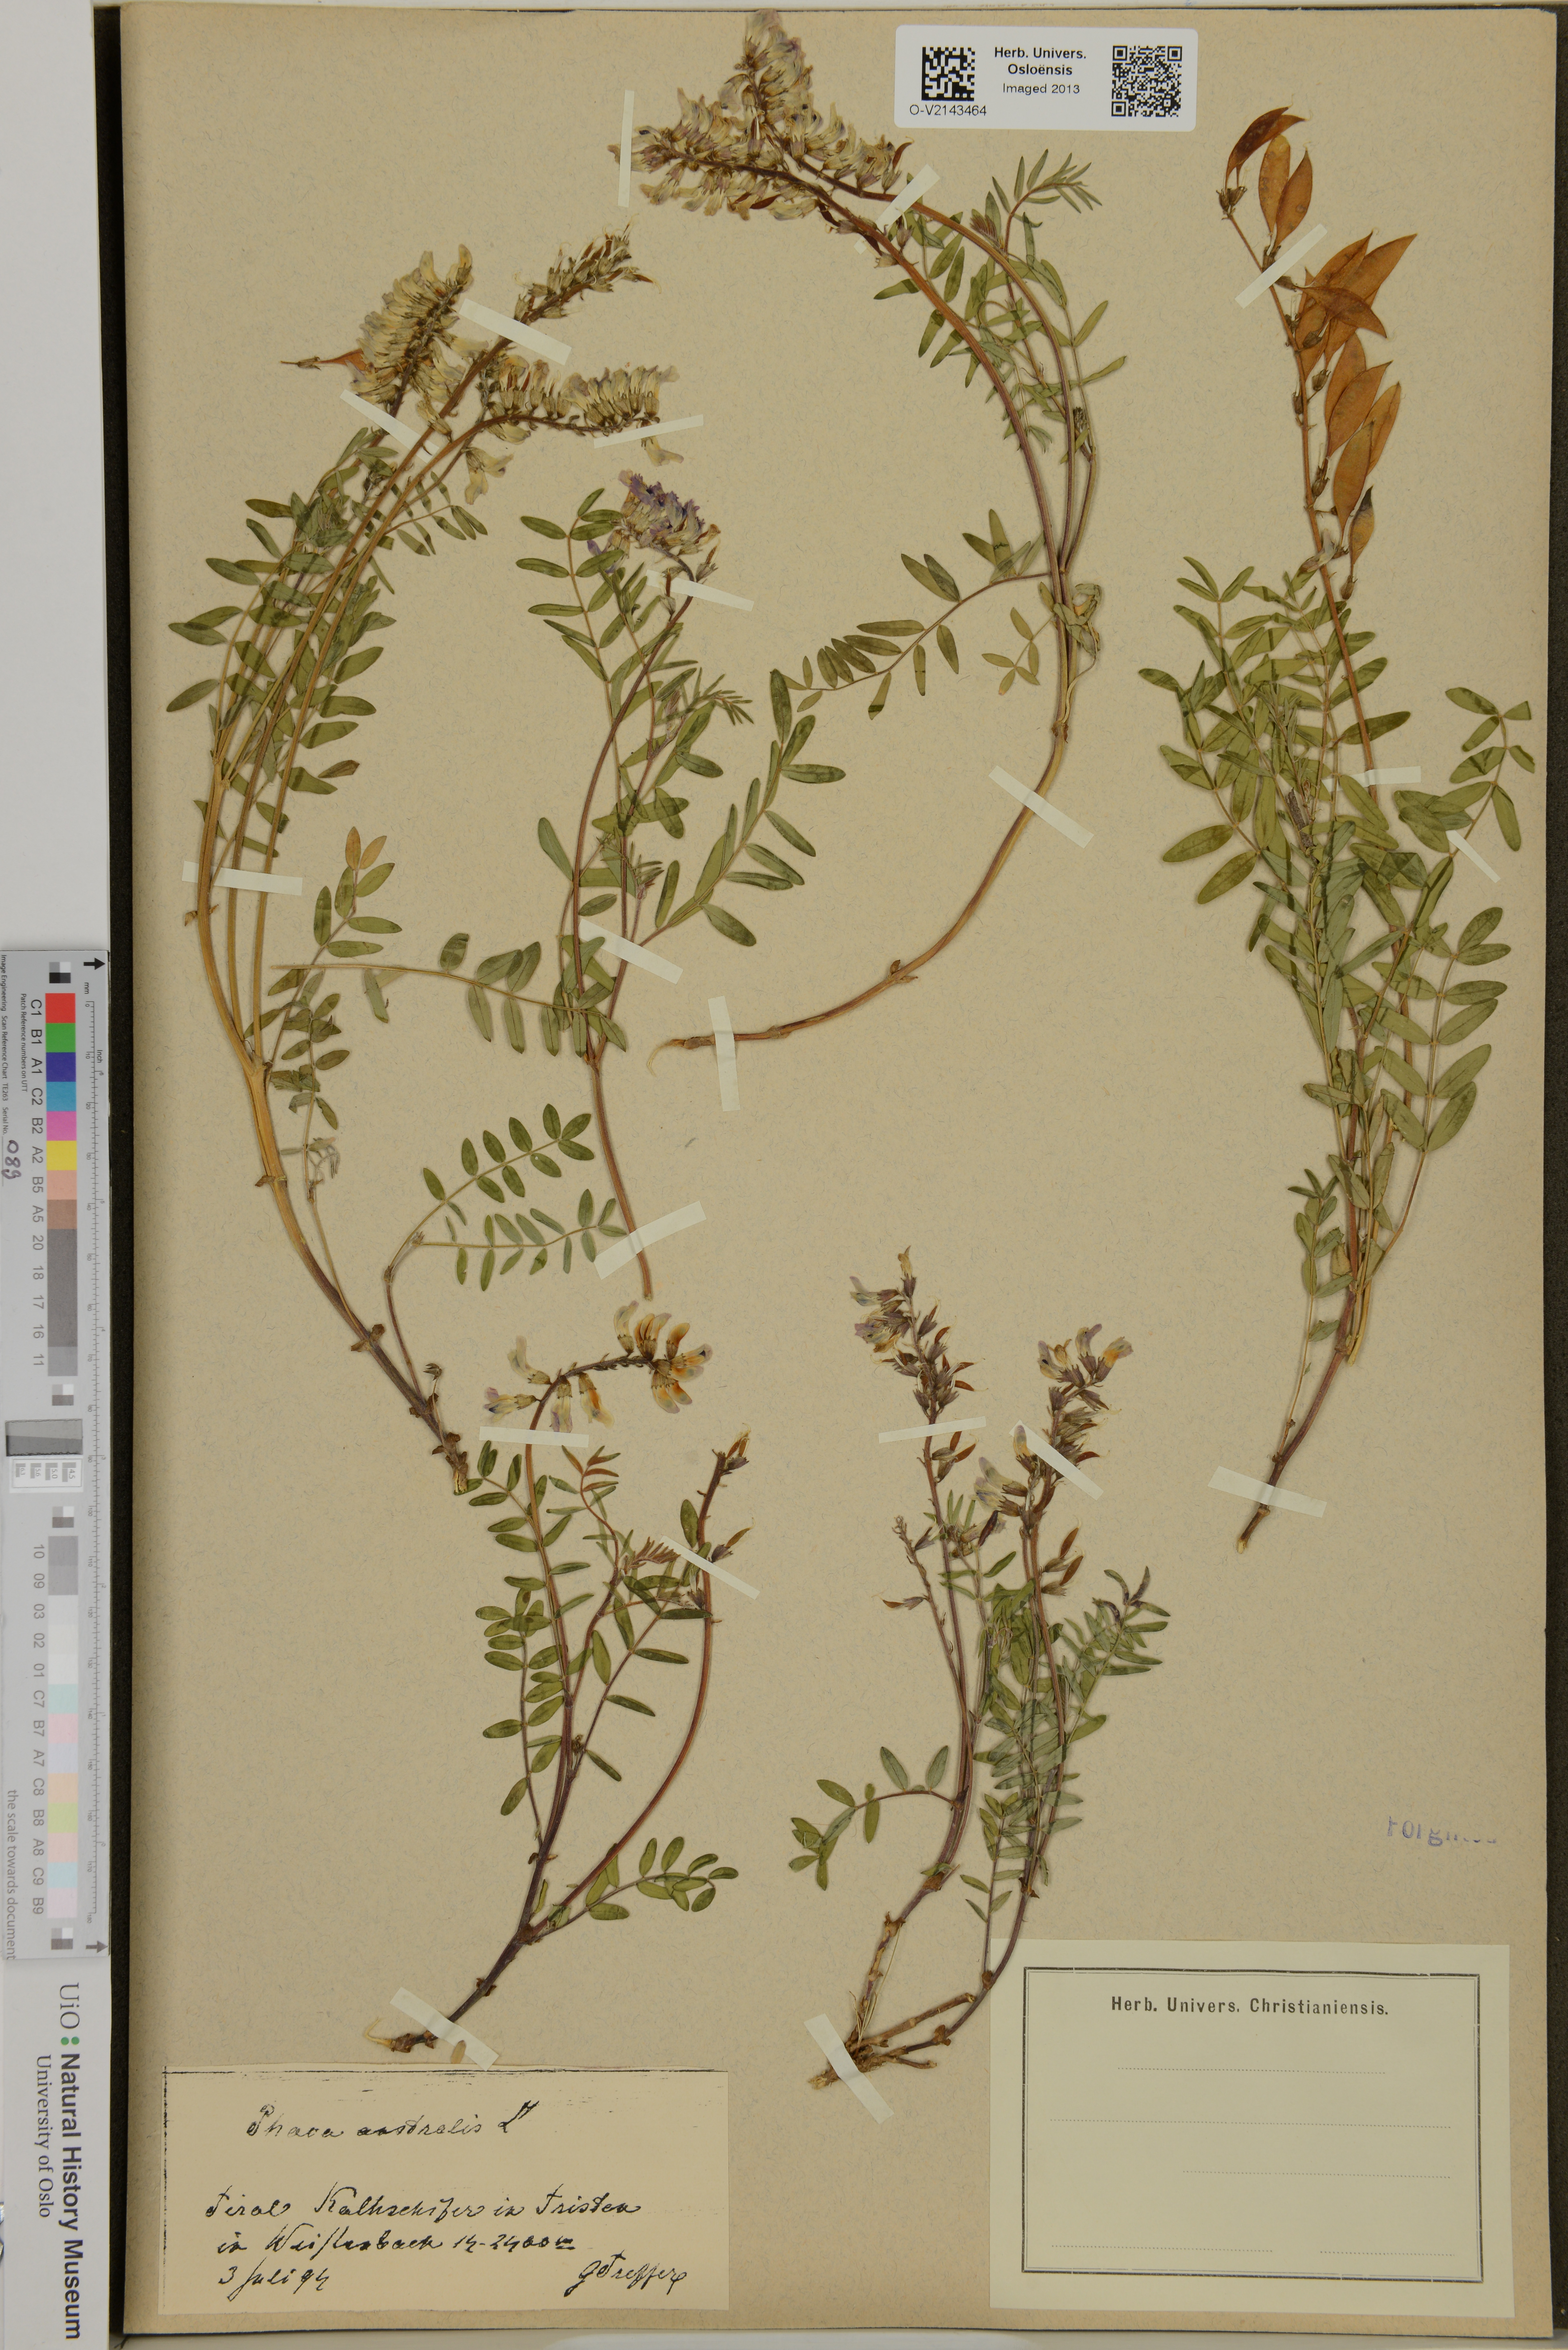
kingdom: Plantae
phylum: Tracheophyta
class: Magnoliopsida
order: Fabales
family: Fabaceae
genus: Astragalus
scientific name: Astragalus australis
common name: Indian milk-vetch
